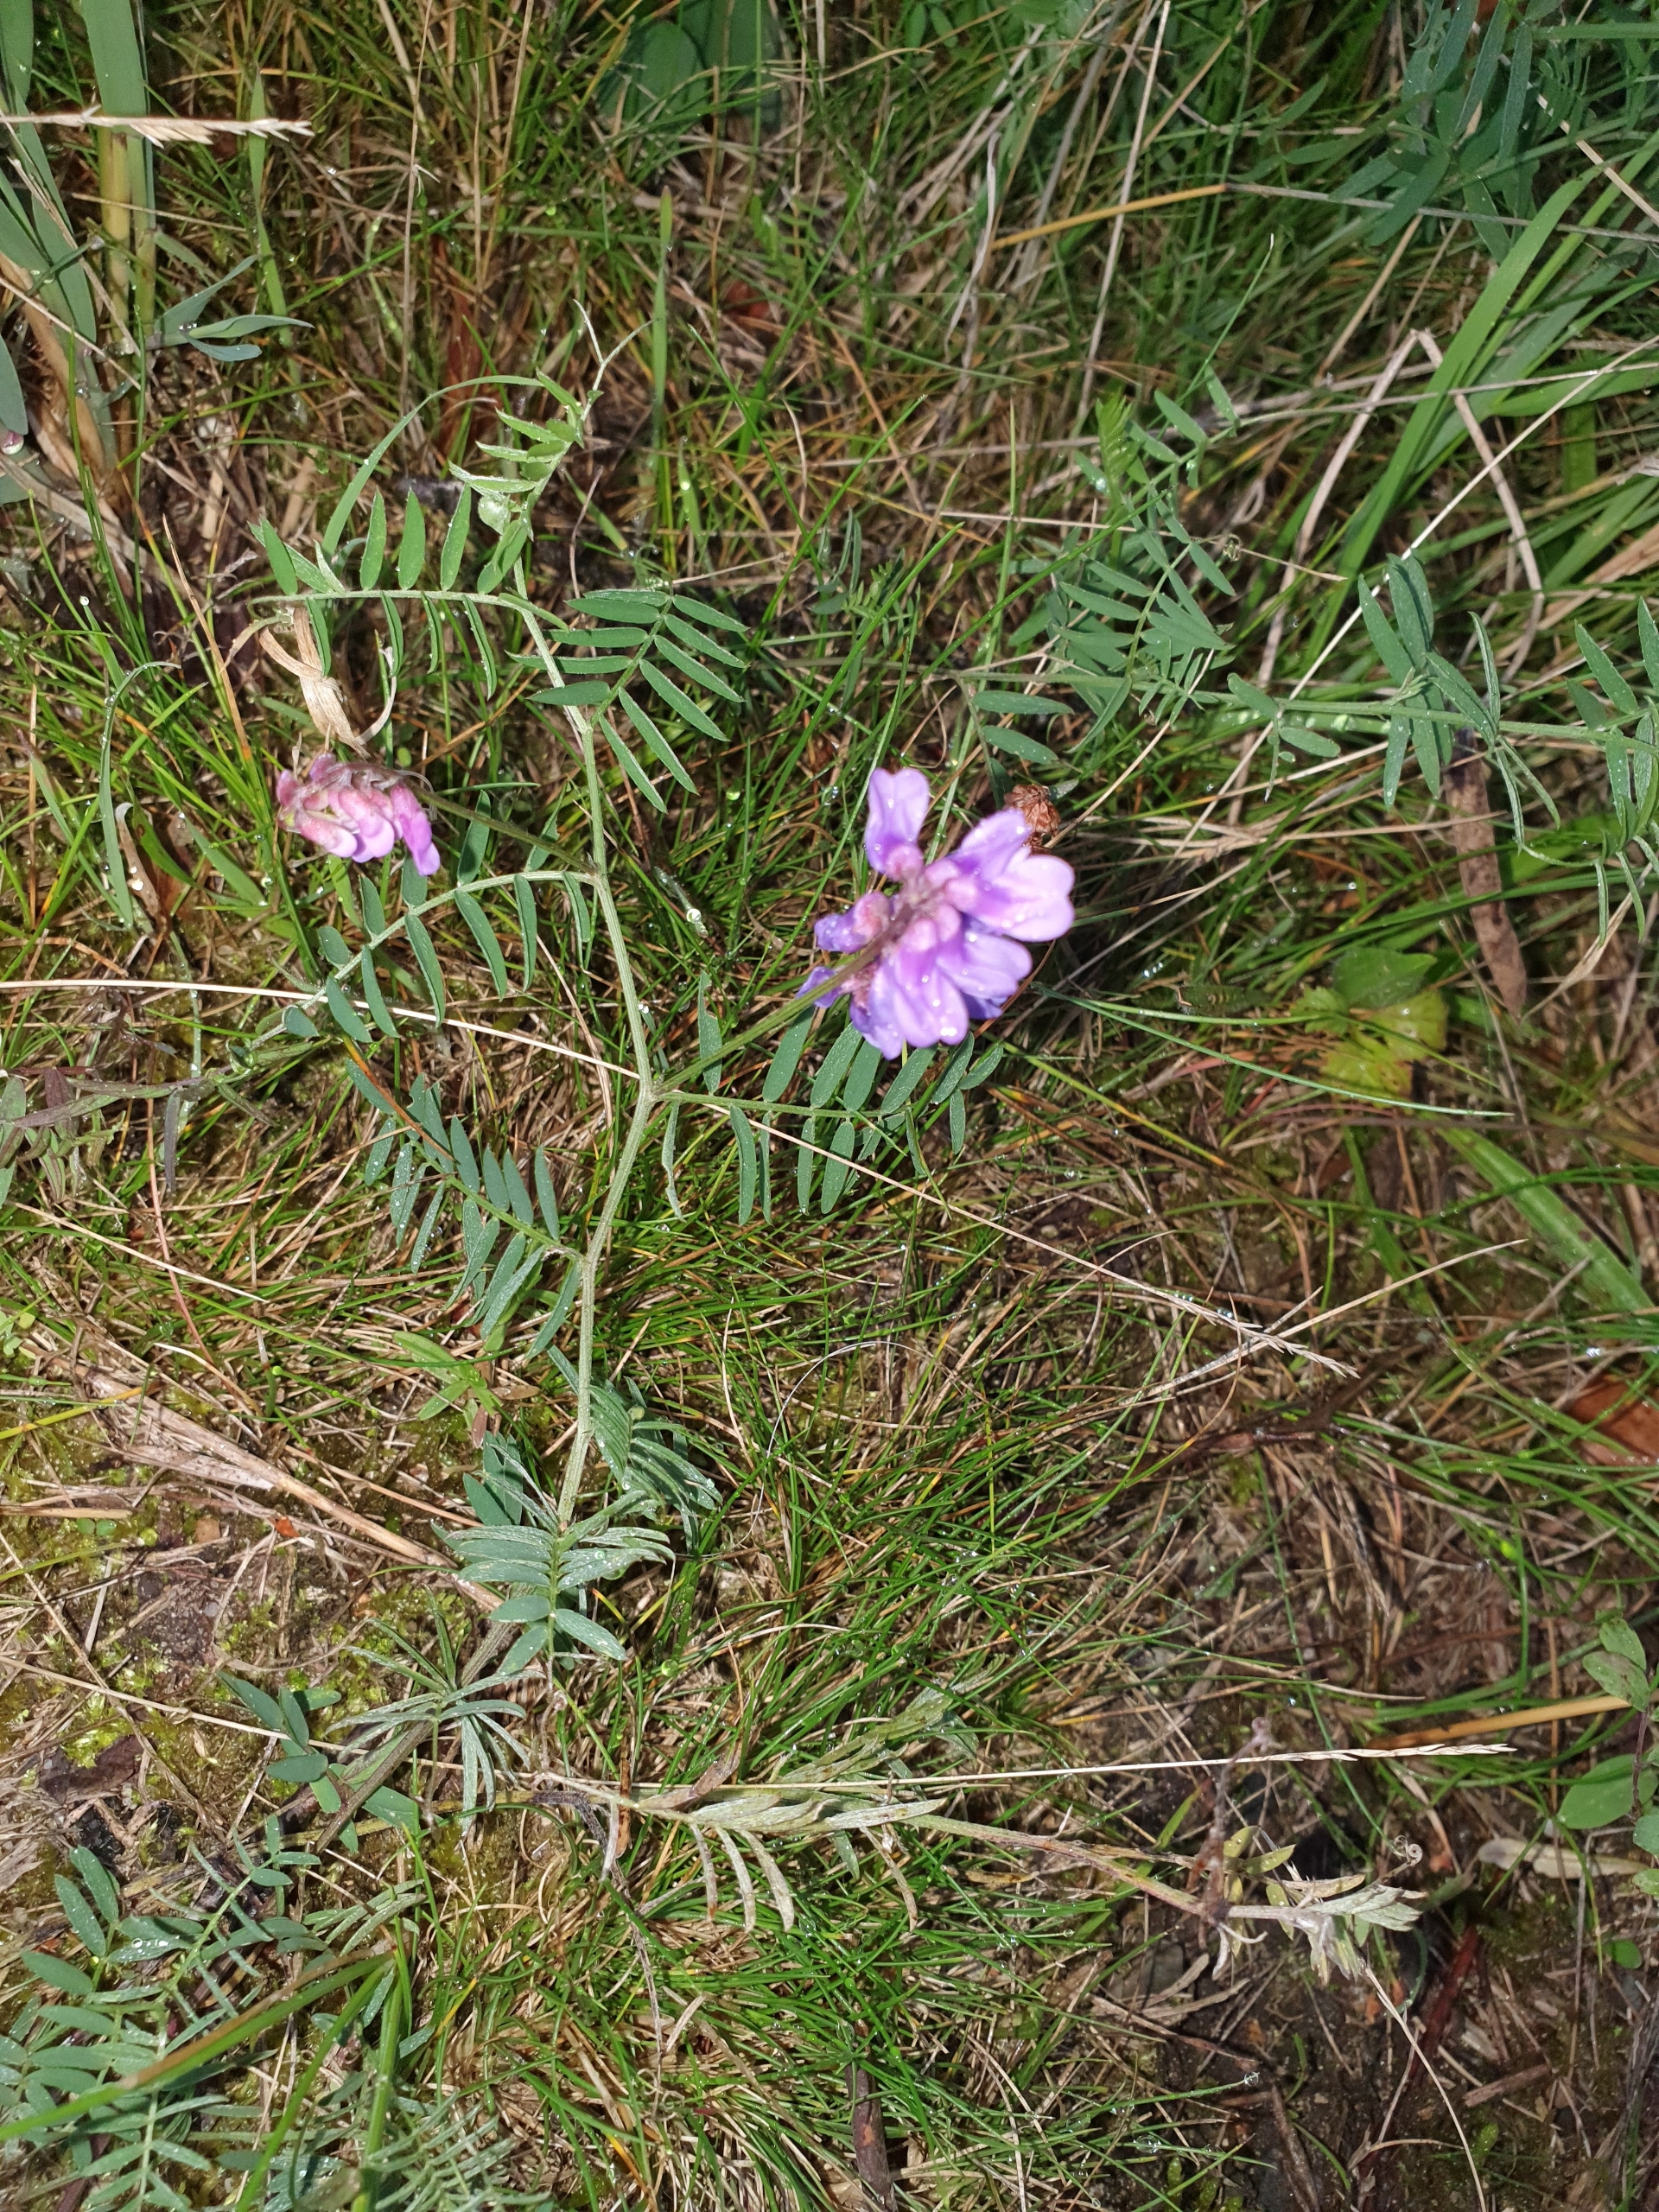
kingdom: Plantae
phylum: Tracheophyta
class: Magnoliopsida
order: Fabales
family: Fabaceae
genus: Vicia
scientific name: Vicia cracca
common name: Muse-vikke
